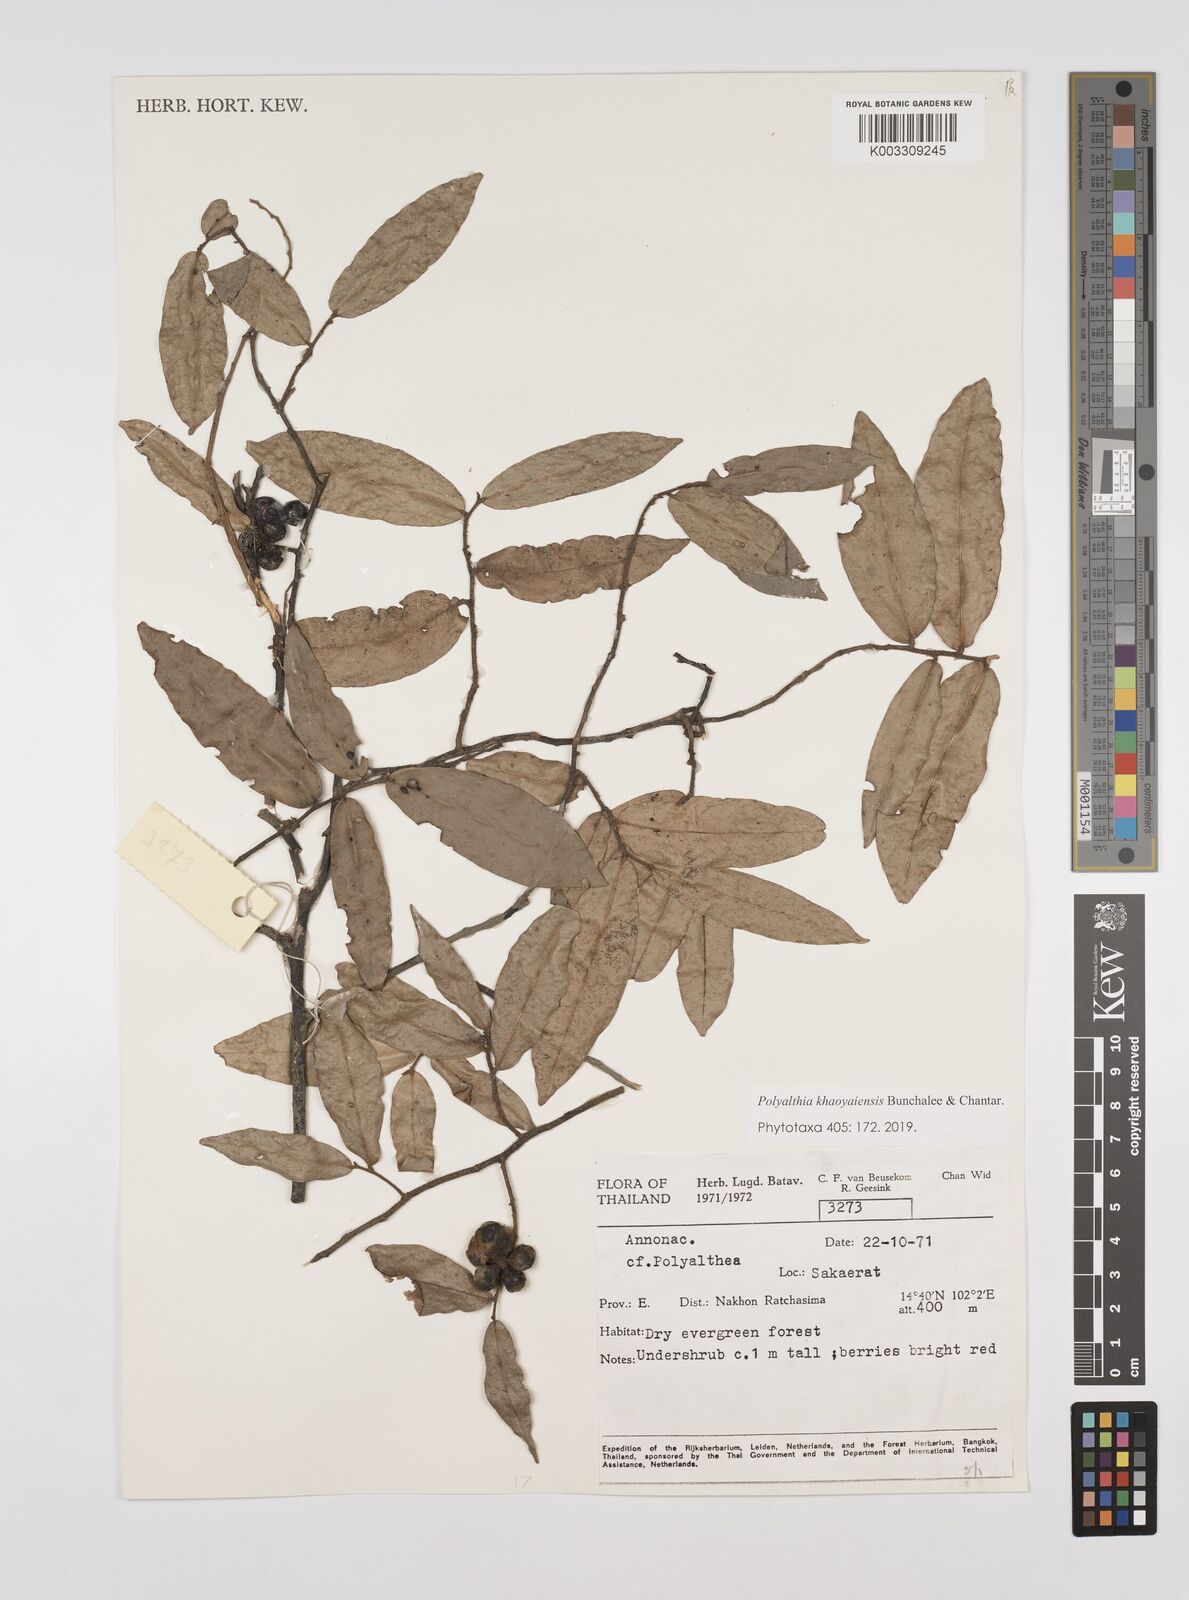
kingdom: Plantae
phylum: Tracheophyta
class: Magnoliopsida
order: Magnoliales
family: Annonaceae
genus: Polyalthia
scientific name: Polyalthia khaoyaiensis
